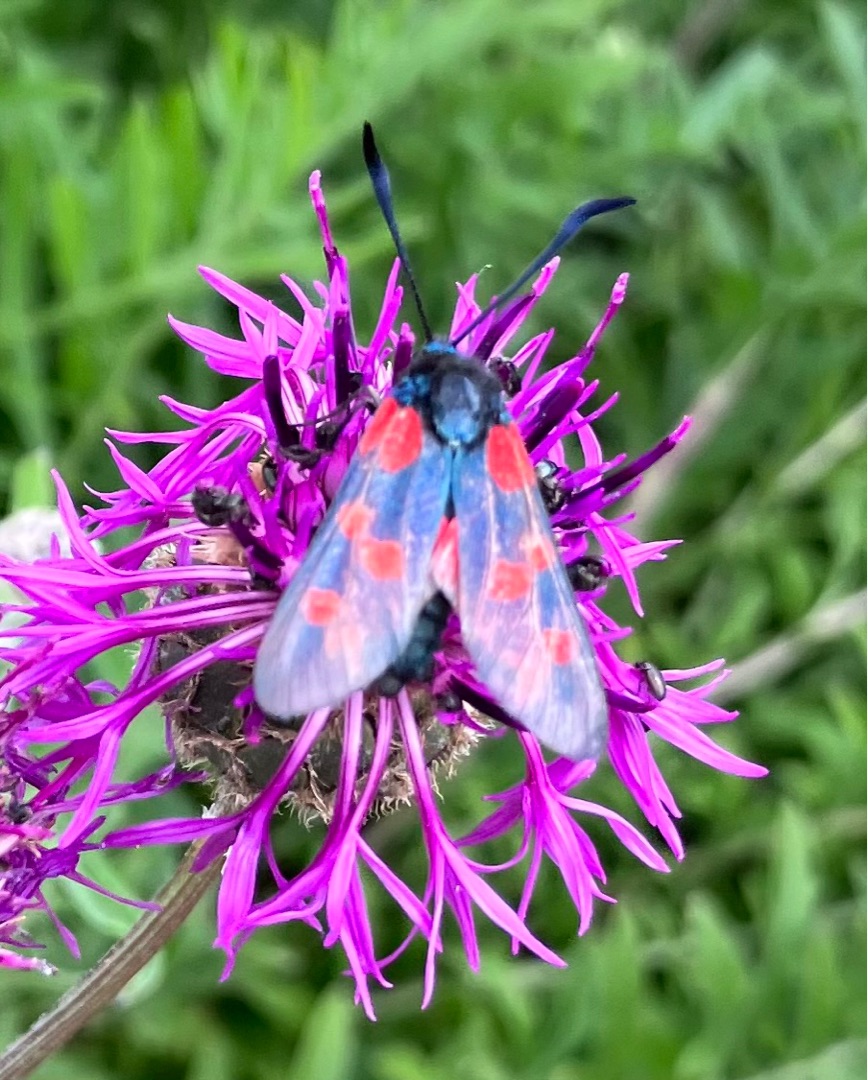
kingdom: Animalia
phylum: Arthropoda
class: Insecta
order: Lepidoptera
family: Zygaenidae
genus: Zygaena
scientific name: Zygaena filipendulae
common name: Seksplettet køllesværmer
